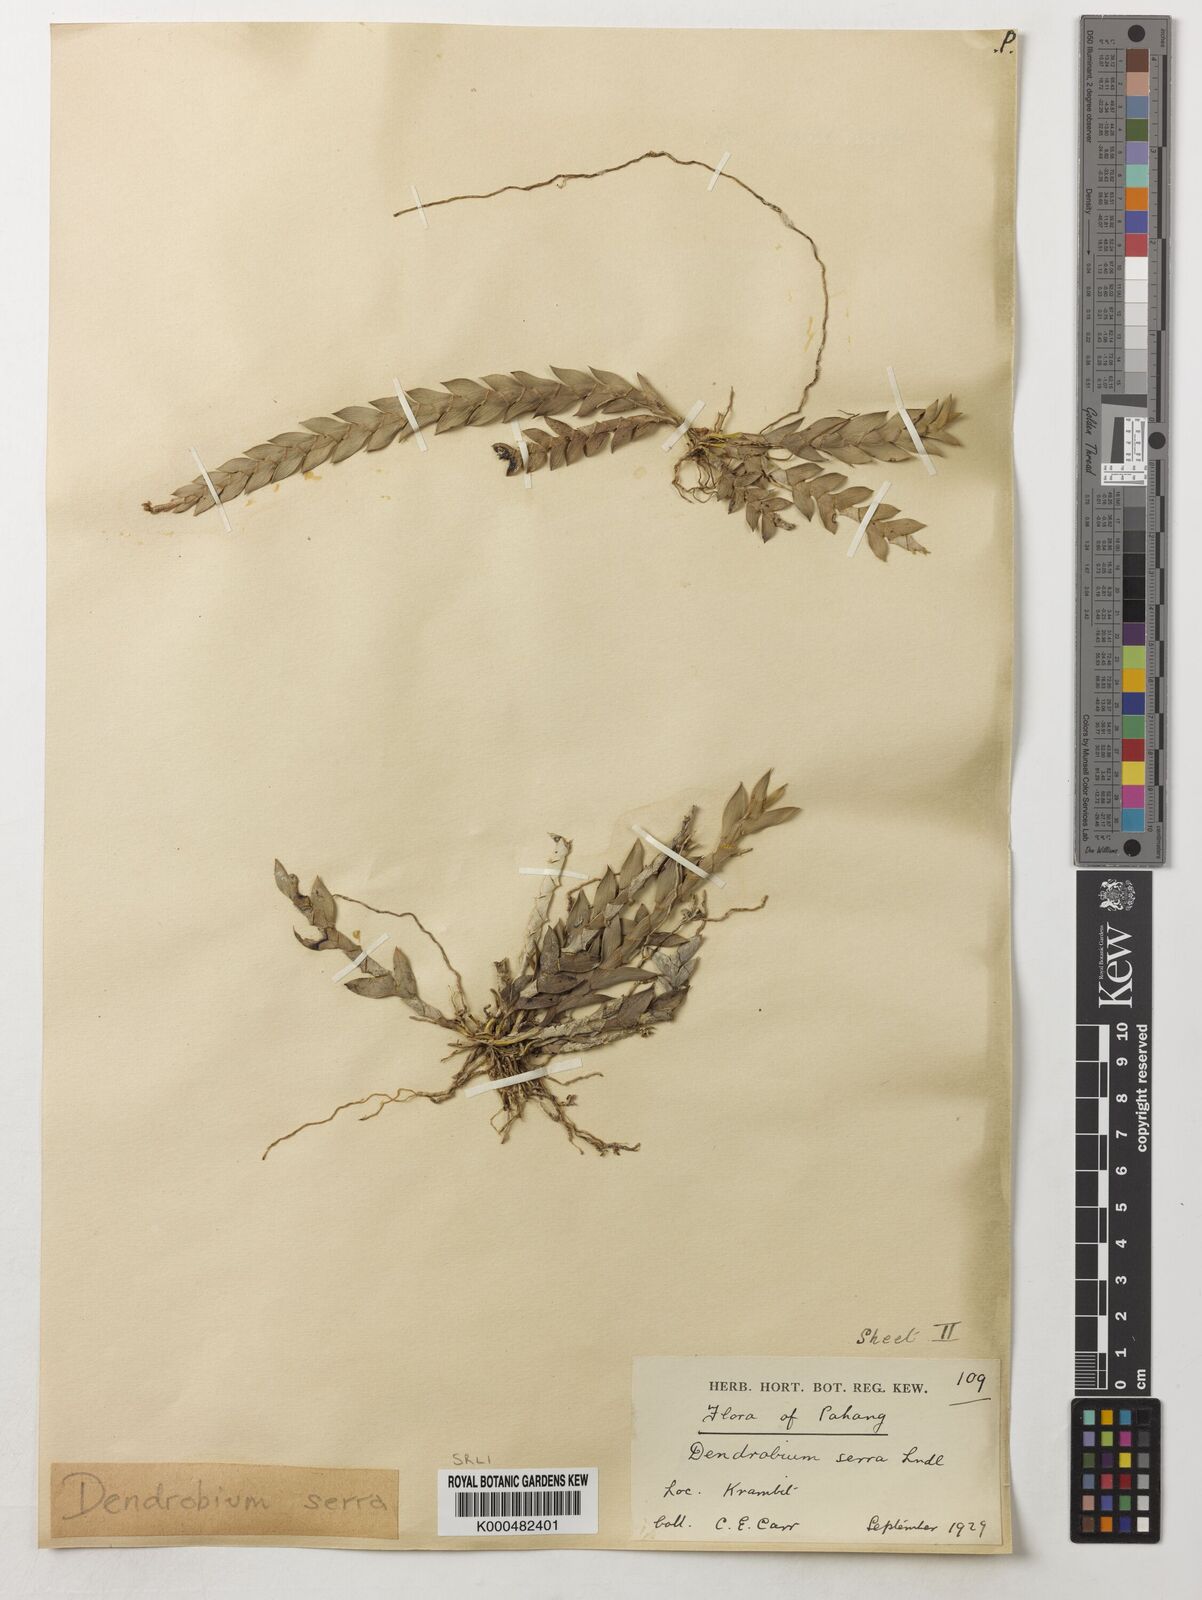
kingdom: Plantae
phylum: Tracheophyta
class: Liliopsida
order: Asparagales
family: Orchidaceae
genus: Dendrobium
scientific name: Dendrobium aloifolium
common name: Aloe-like dendrobium
